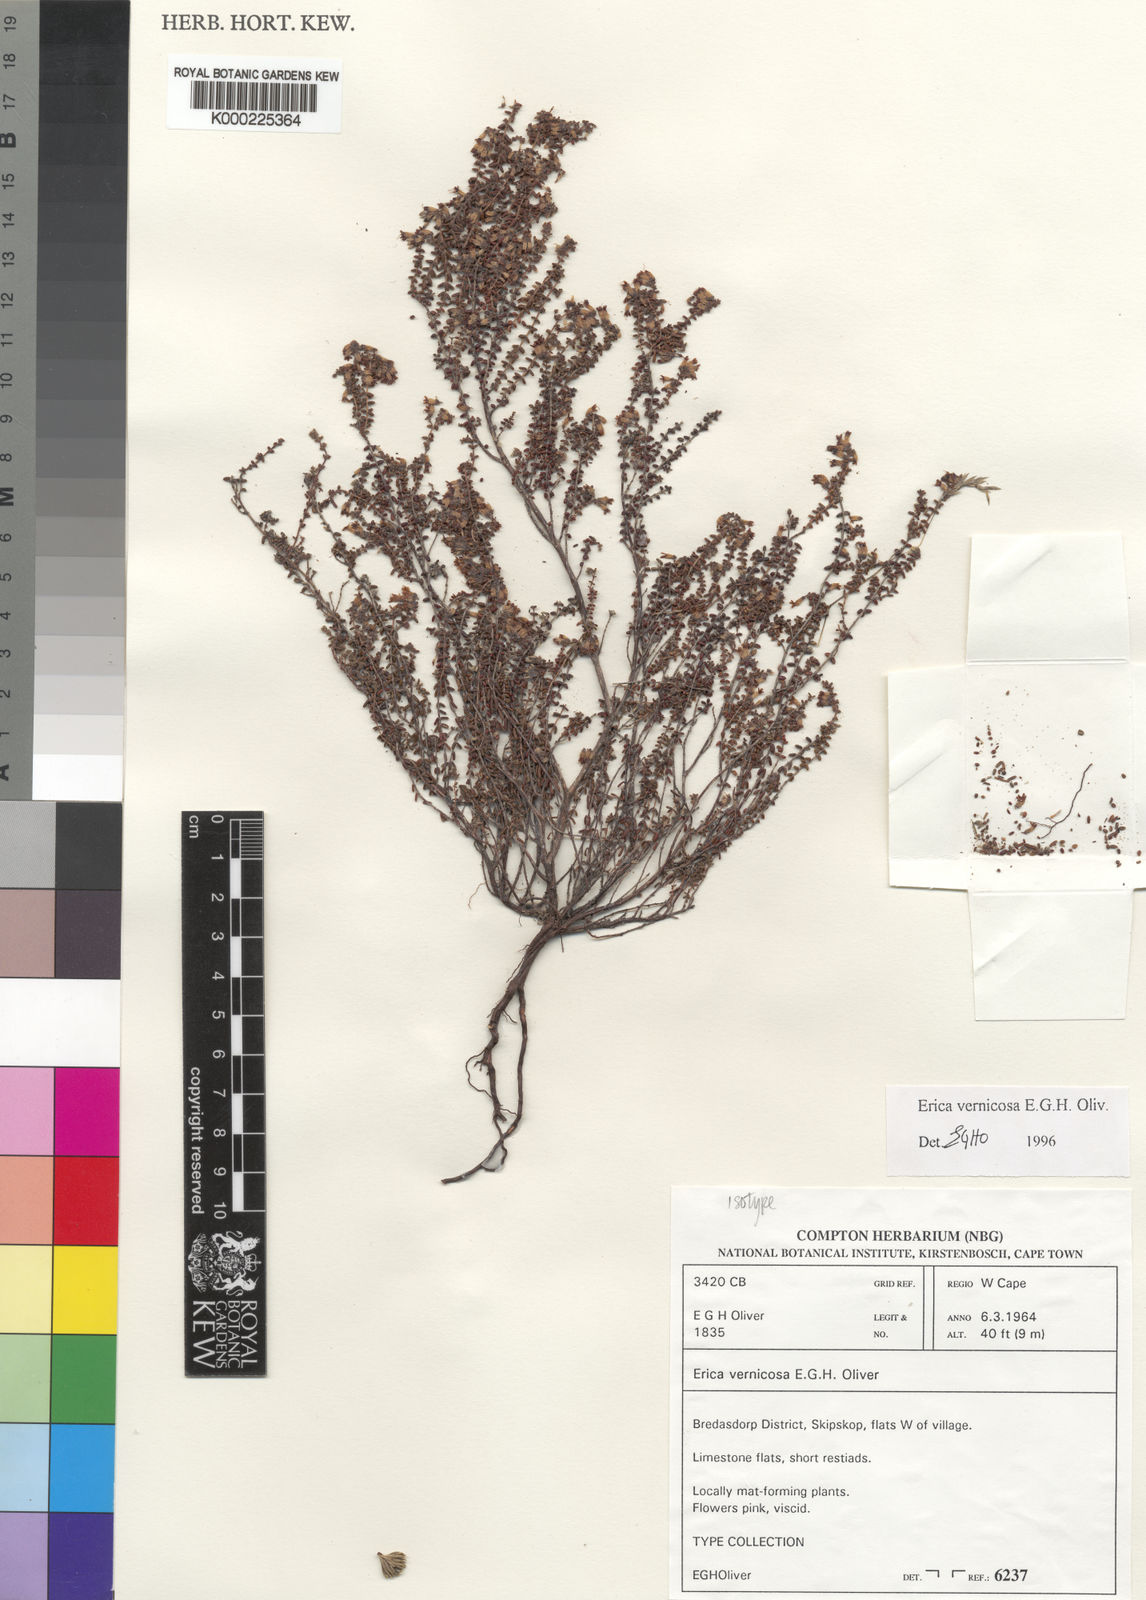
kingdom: Plantae
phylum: Tracheophyta
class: Magnoliopsida
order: Ericales
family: Ericaceae
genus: Erica
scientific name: Erica vernicosa
